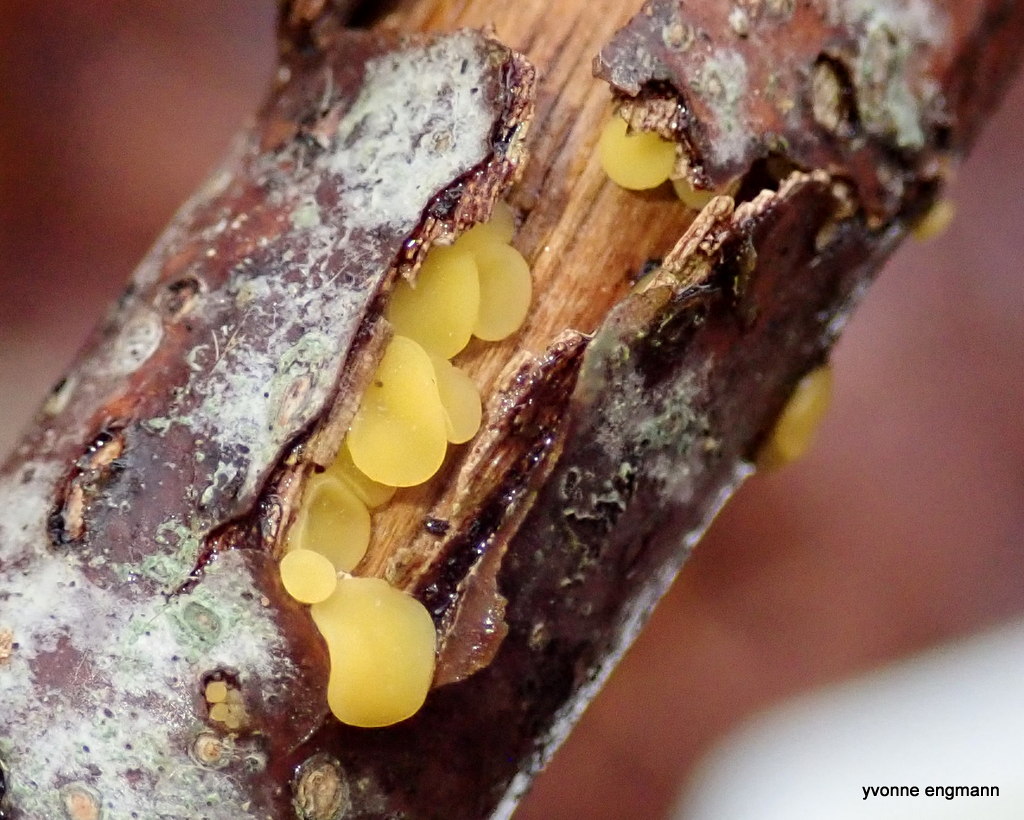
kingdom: Fungi
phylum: Ascomycota
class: Leotiomycetes
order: Helotiales
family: Pezizellaceae
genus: Calycina
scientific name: Calycina citrina
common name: almindelig gulskive
